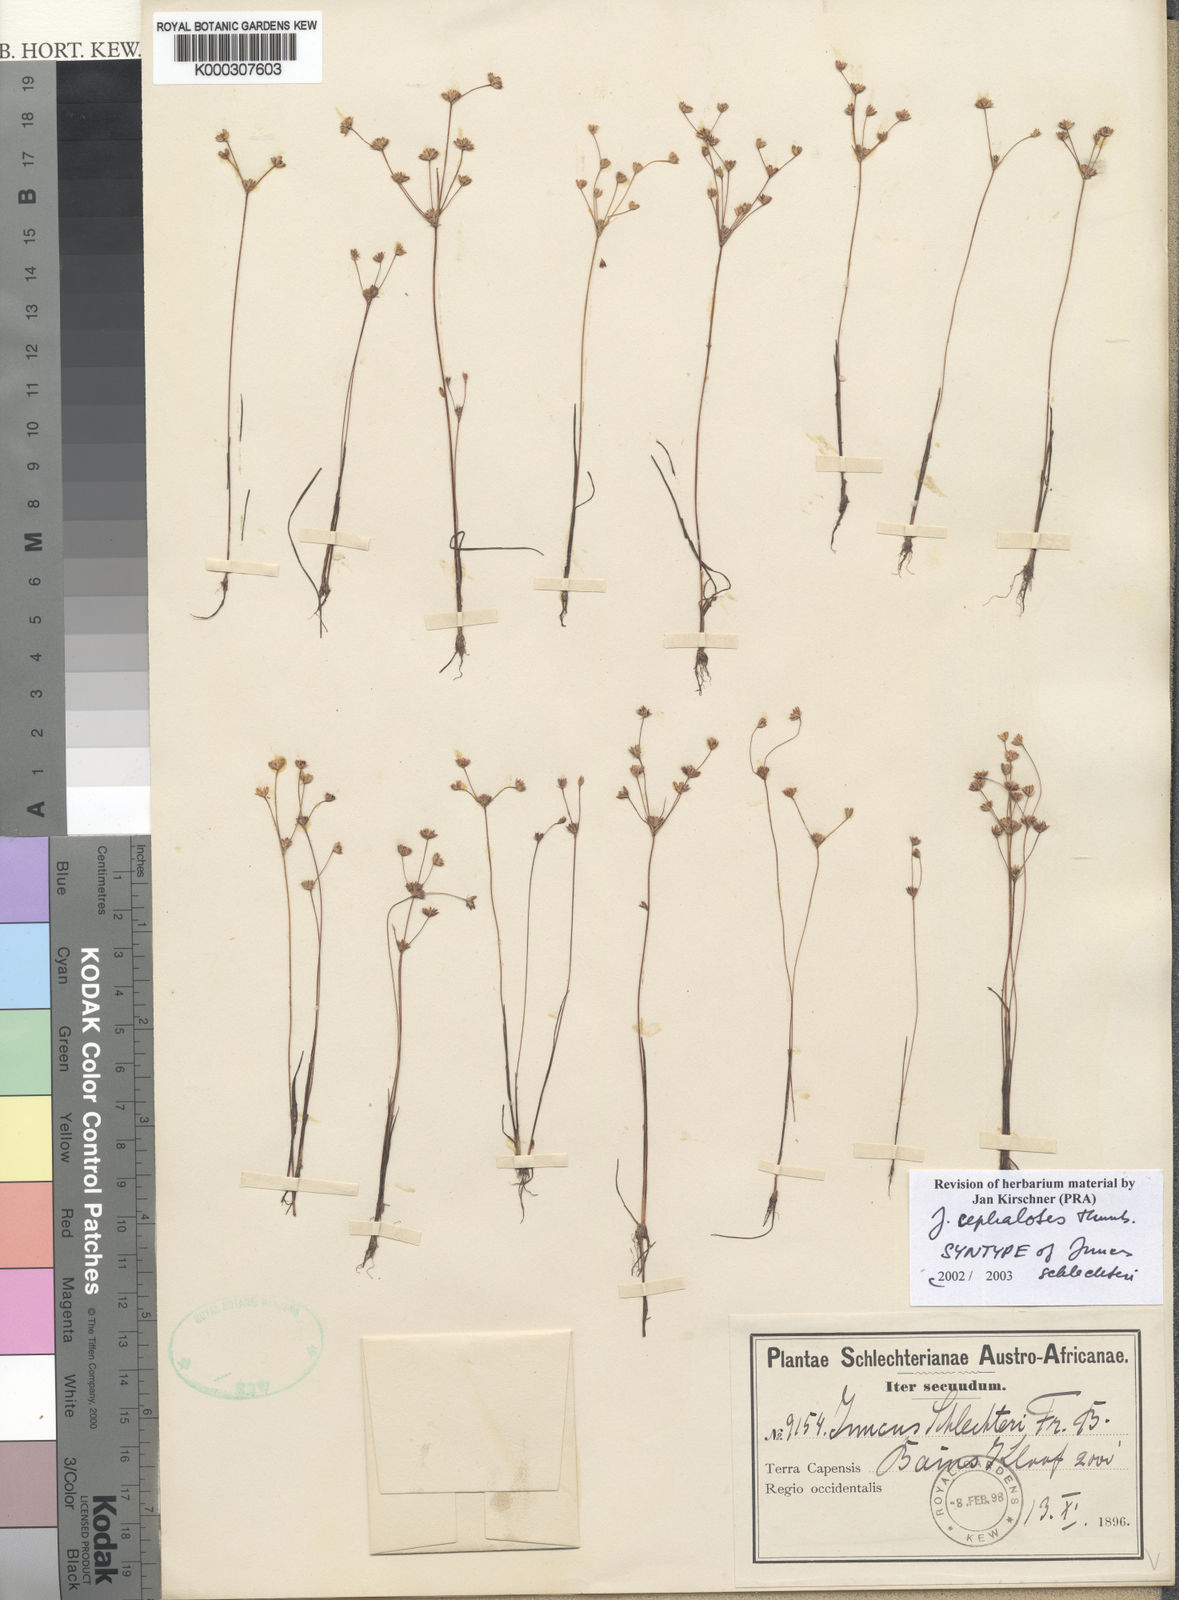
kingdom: Plantae
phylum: Tracheophyta
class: Liliopsida
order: Poales
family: Juncaceae
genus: Juncus
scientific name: Juncus cephalotes
